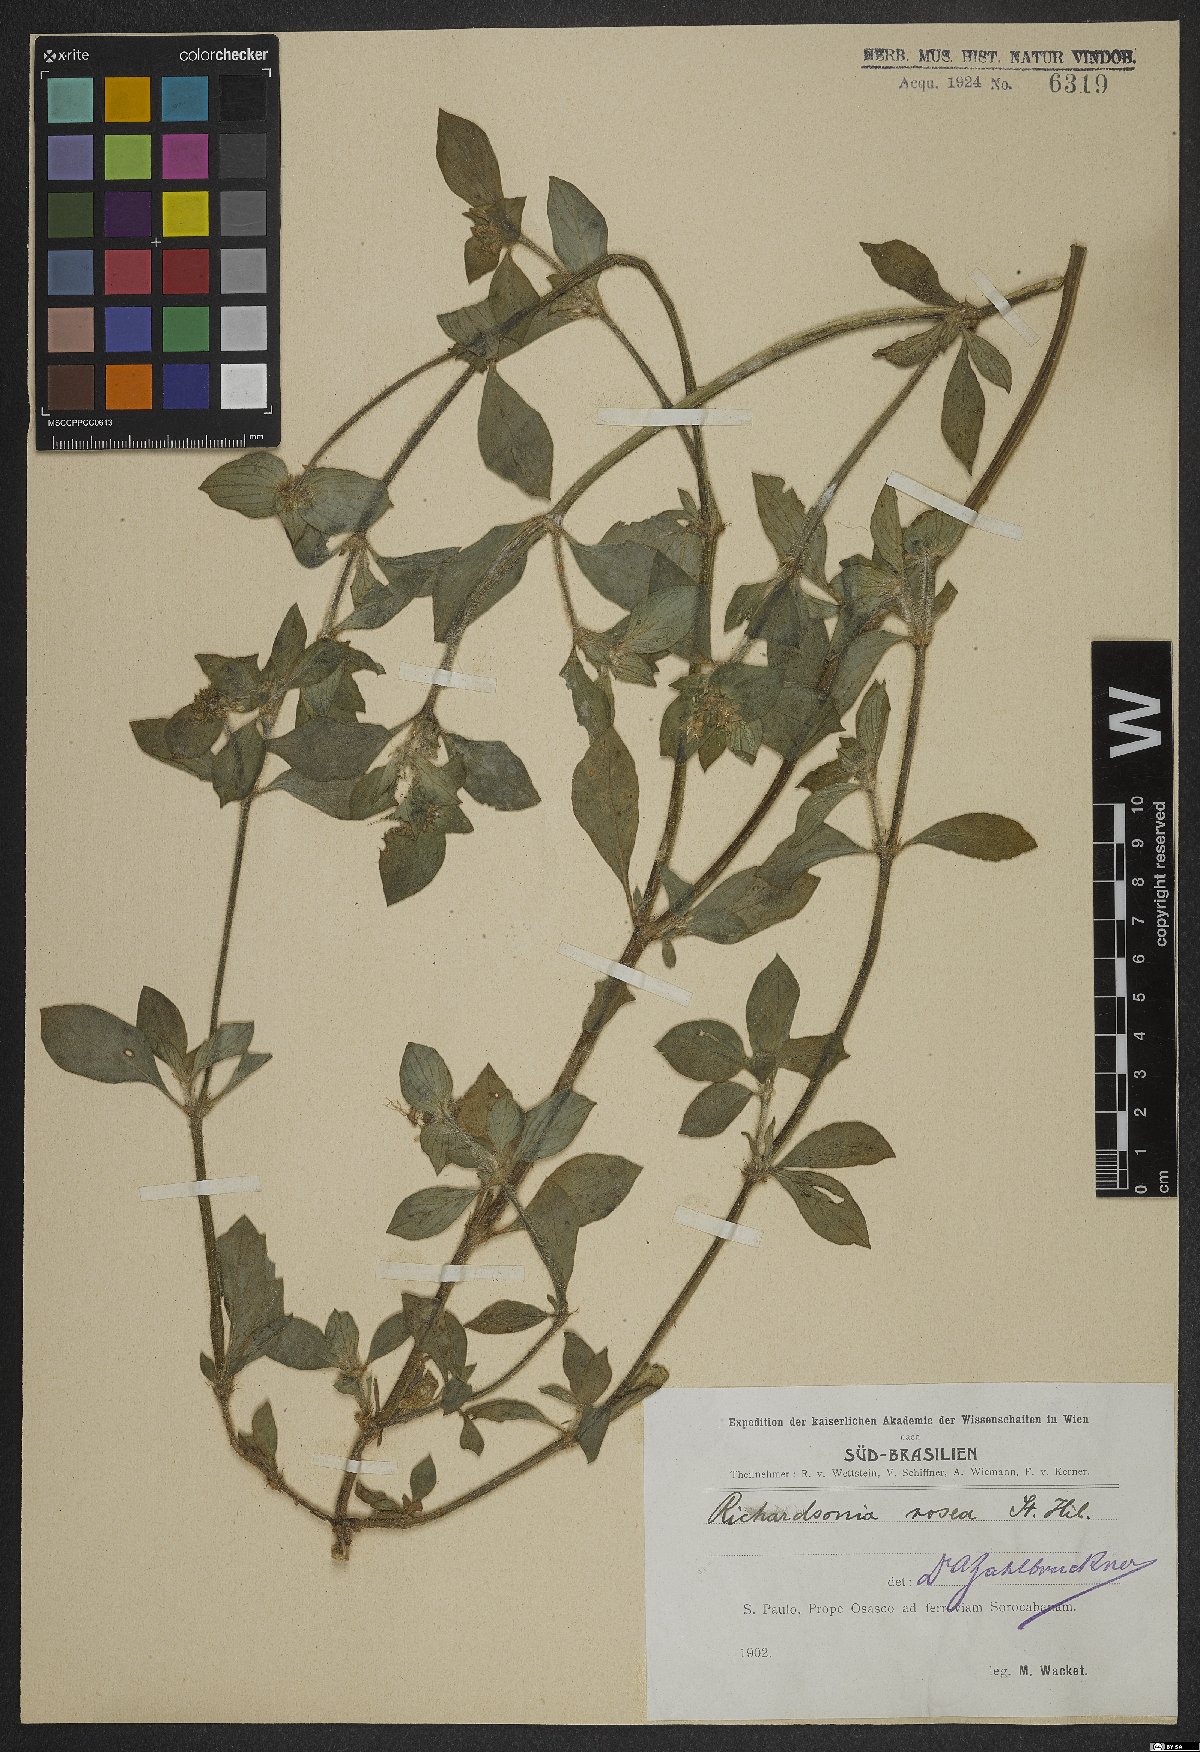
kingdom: Plantae
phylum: Tracheophyta
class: Magnoliopsida
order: Gentianales
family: Rubiaceae
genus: Richardia
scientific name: Richardia brasiliensis
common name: Tropical mexican clover
